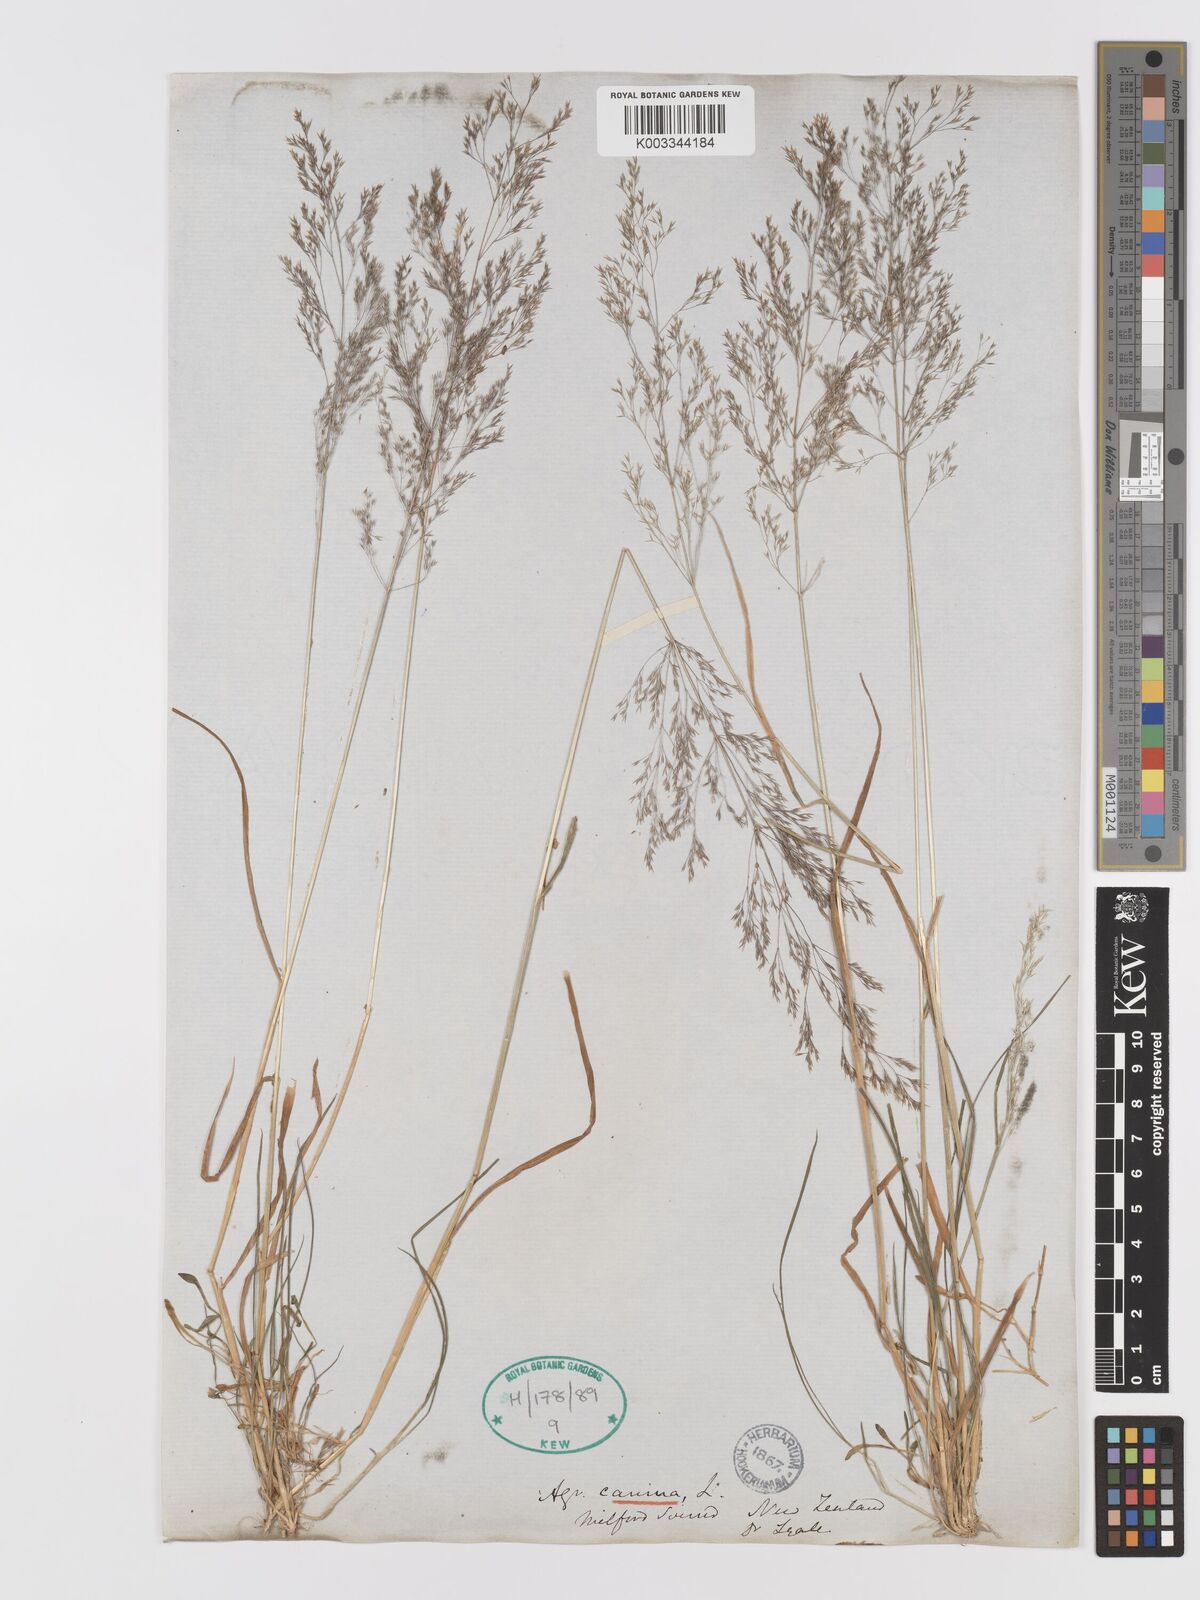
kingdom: Plantae
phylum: Tracheophyta
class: Liliopsida
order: Poales
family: Poaceae
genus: Agrostis
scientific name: Agrostis personata
